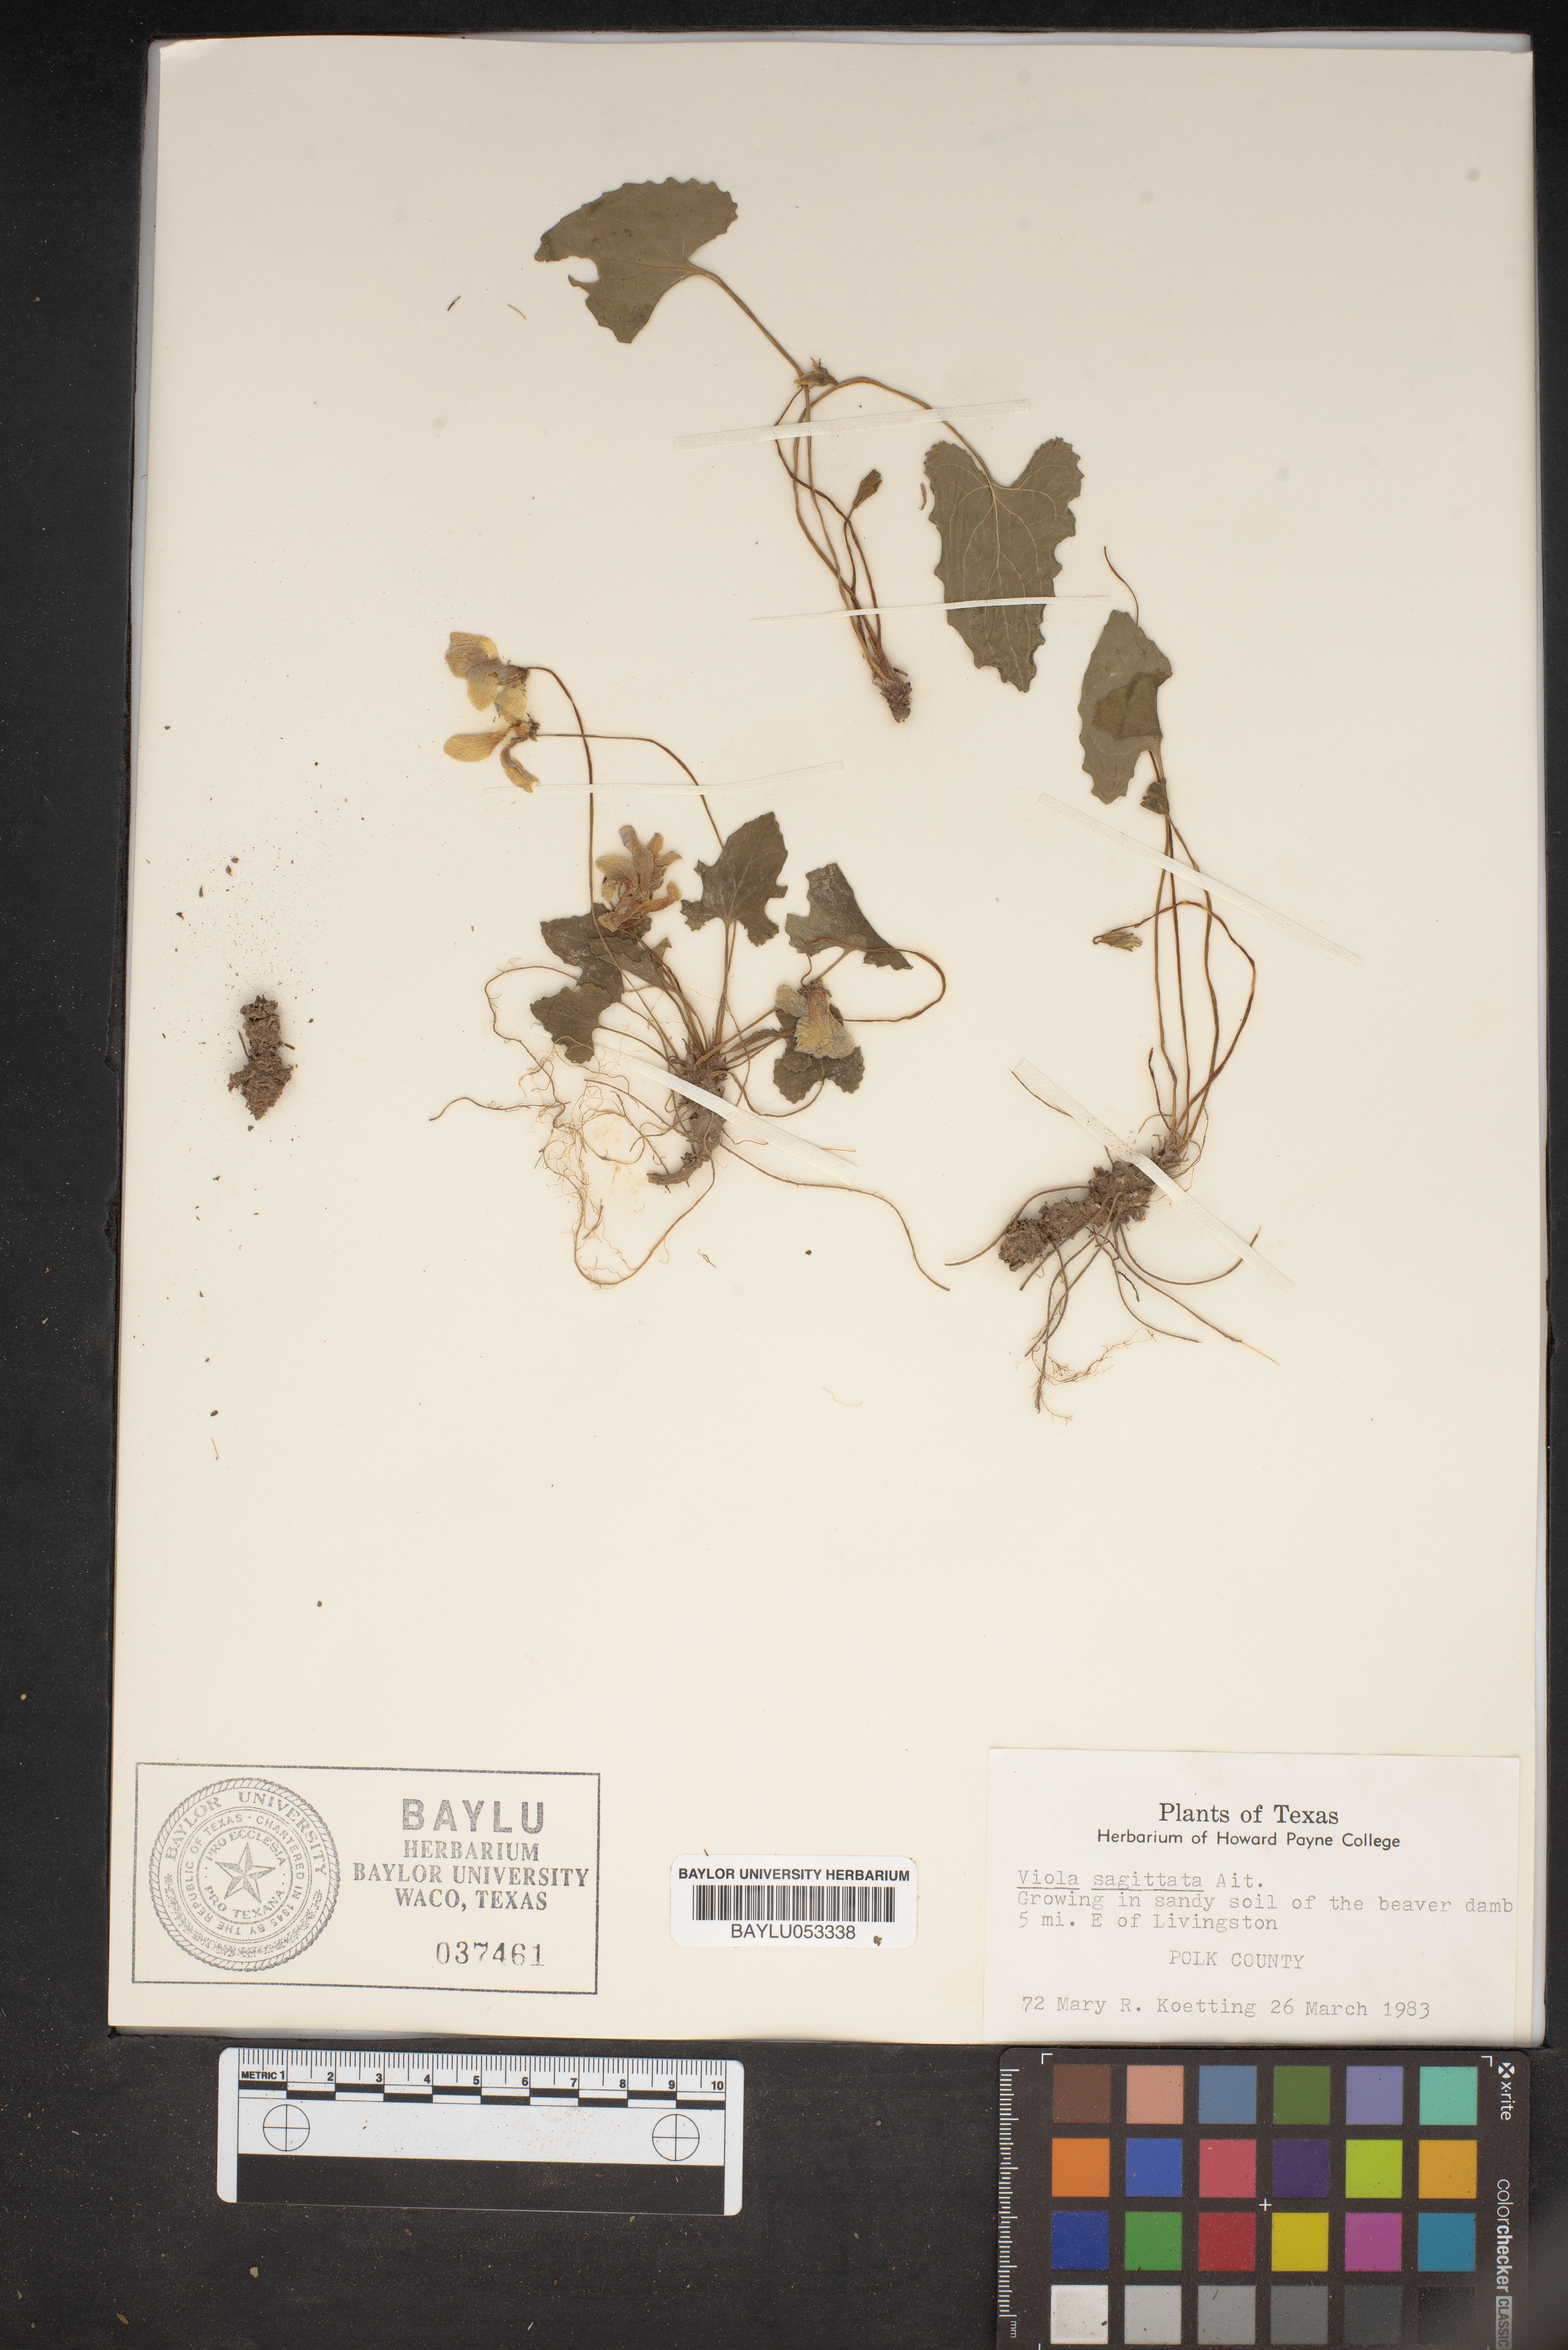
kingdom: Plantae
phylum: Tracheophyta
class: Magnoliopsida
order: Malpighiales
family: Violaceae
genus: Viola
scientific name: Viola sagittata
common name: Arrowhead violet
